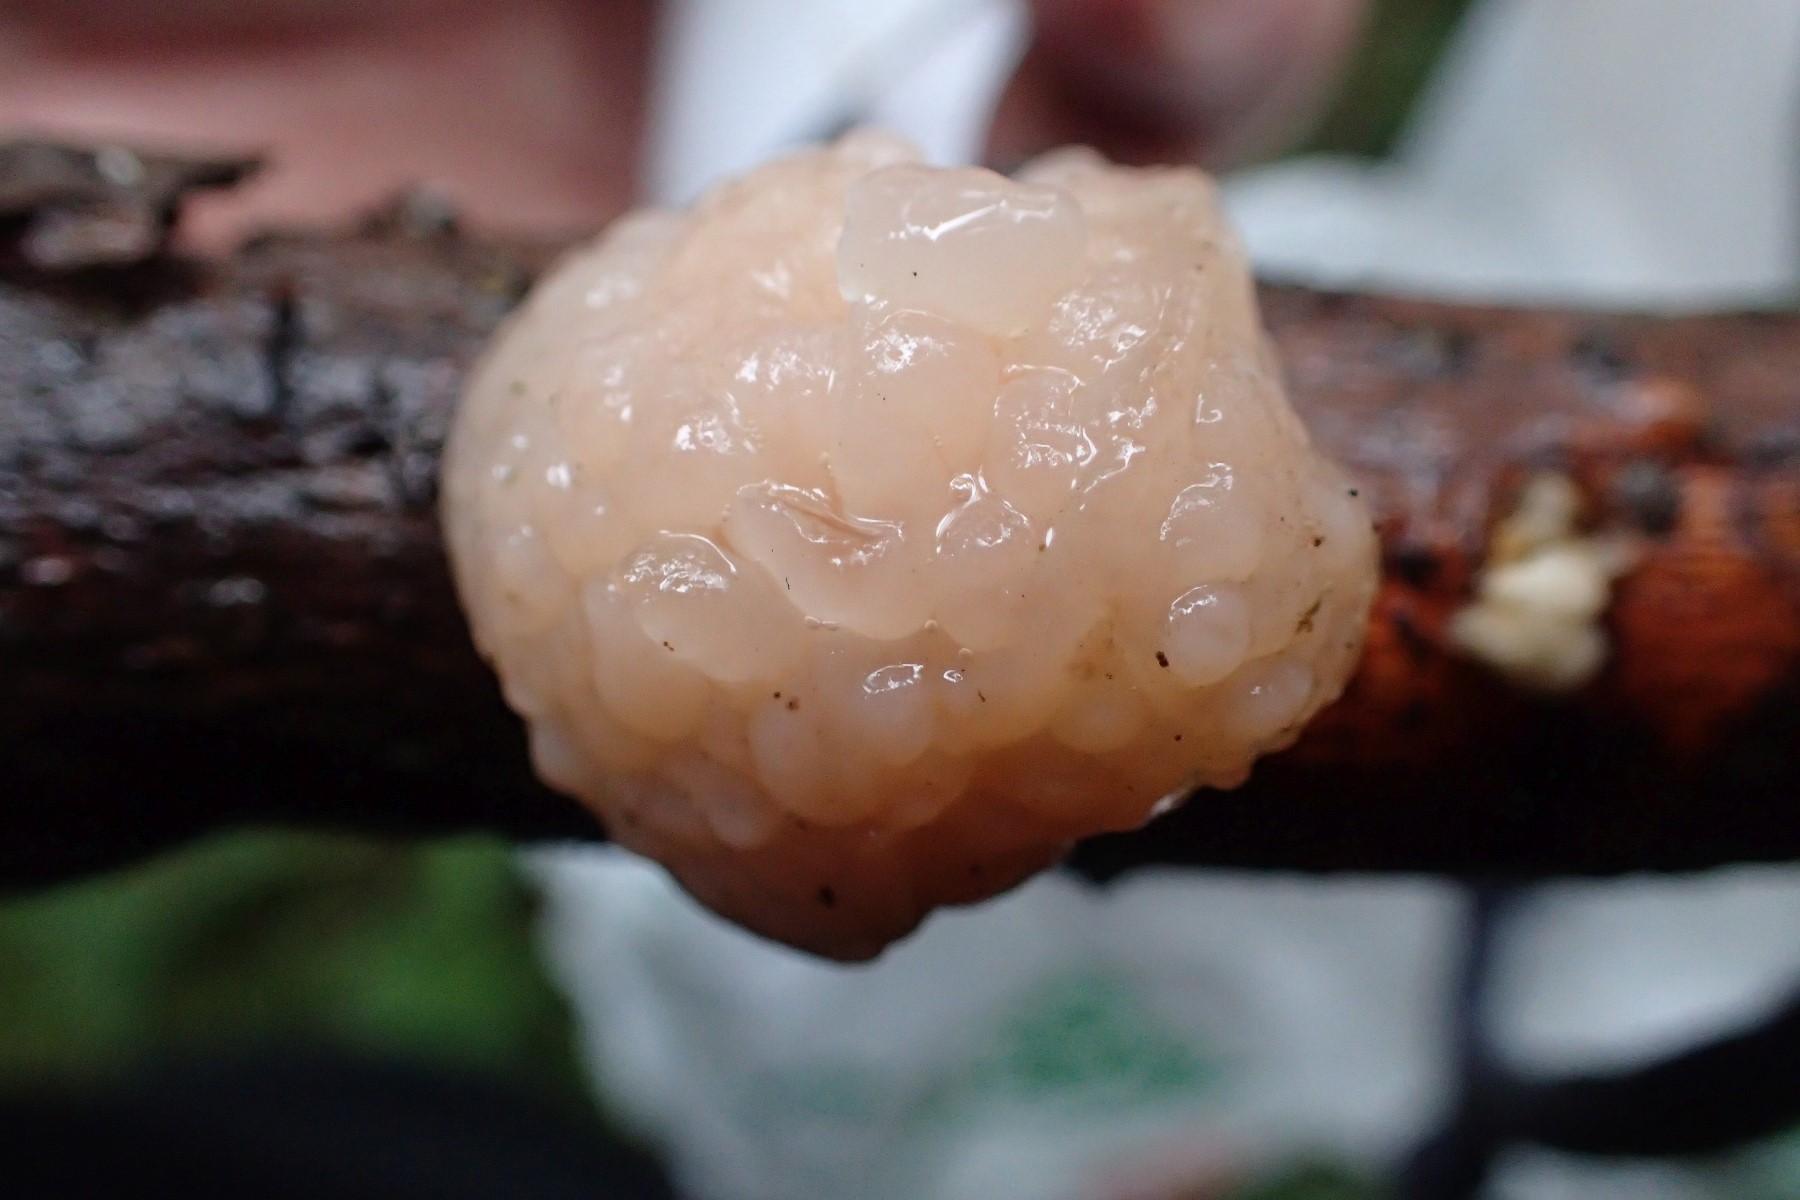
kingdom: Fungi
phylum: Basidiomycota
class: Tremellomycetes
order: Tremellales
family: Naemateliaceae
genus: Naematelia
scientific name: Naematelia encephala
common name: fyrre-bævresvamp
